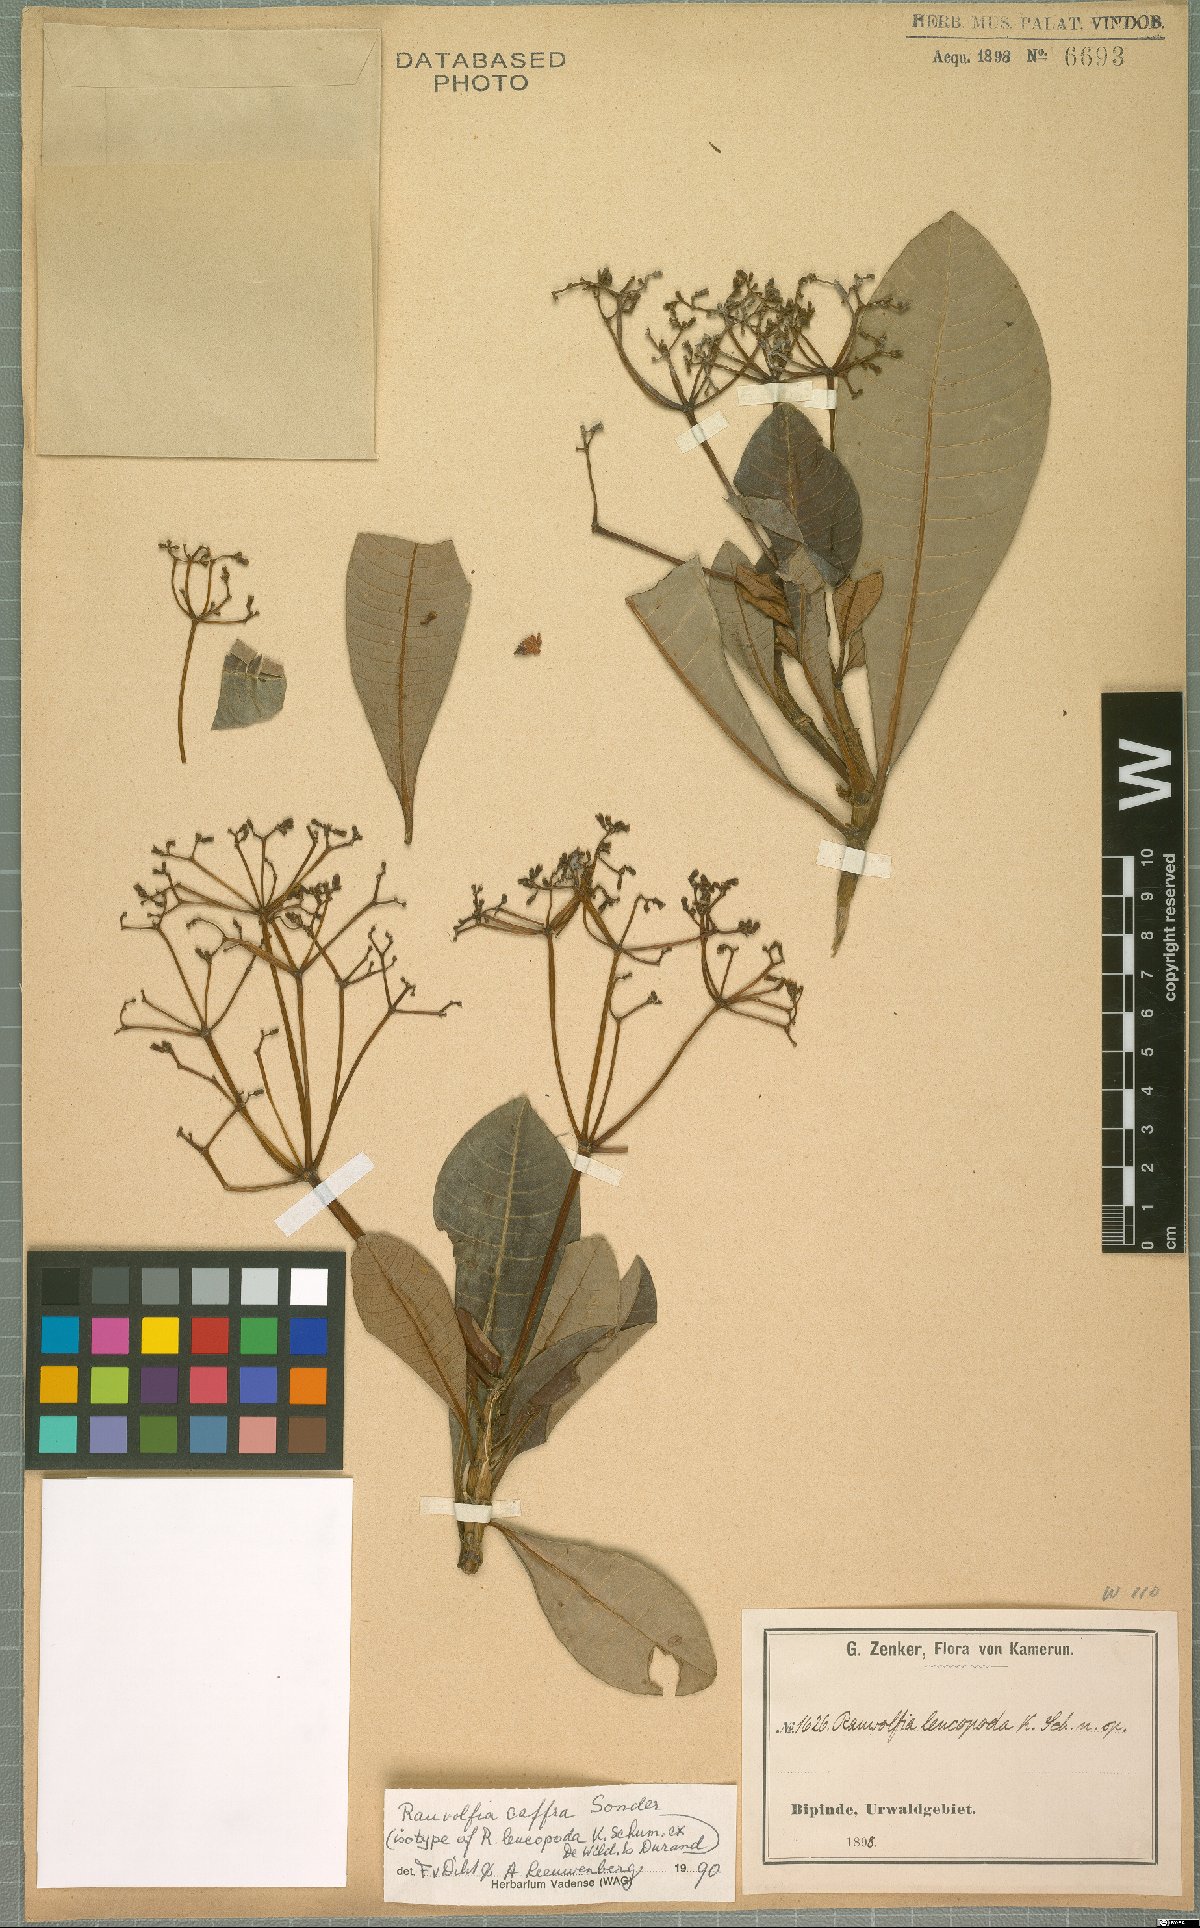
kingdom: Plantae
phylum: Tracheophyta
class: Magnoliopsida
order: Gentianales
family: Apocynaceae
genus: Rauvolfia
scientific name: Rauvolfia caffra
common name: Quininetree
